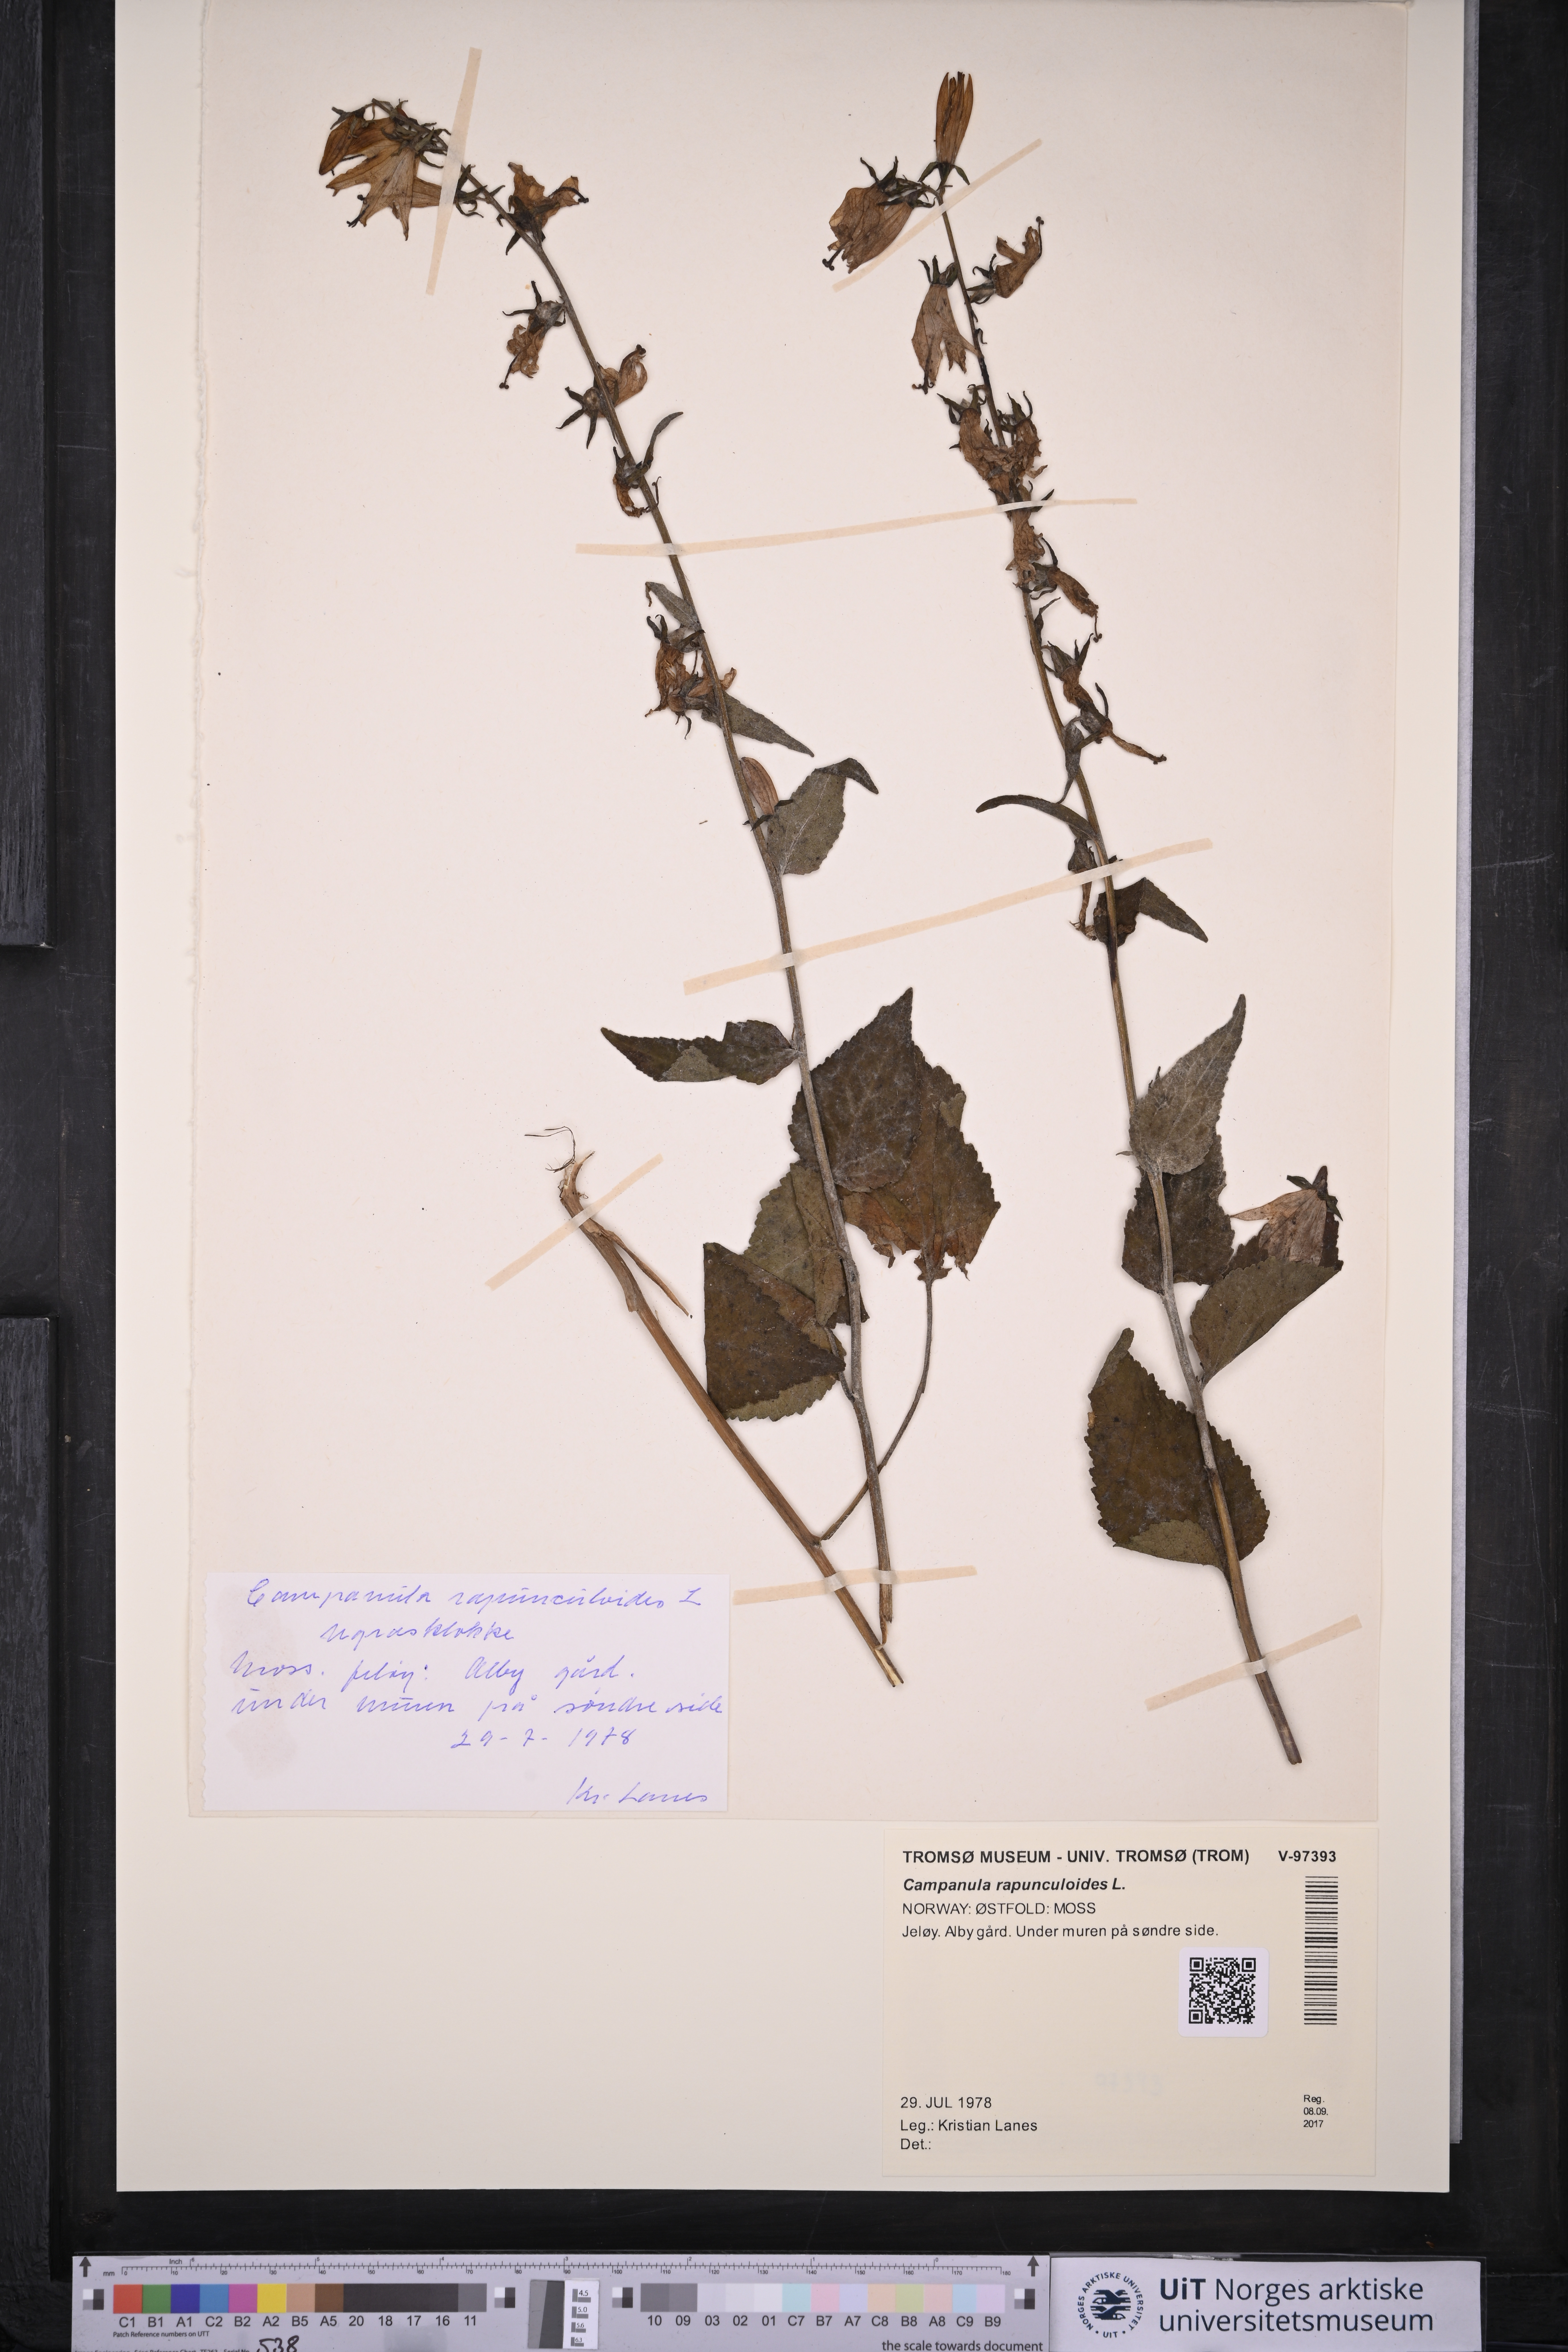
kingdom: Plantae
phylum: Tracheophyta
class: Magnoliopsida
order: Asterales
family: Campanulaceae
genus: Campanula
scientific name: Campanula rapunculoides
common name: Creeping bellflower
